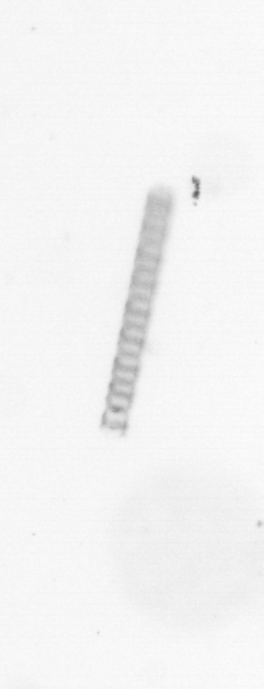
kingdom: Chromista
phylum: Ochrophyta
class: Bacillariophyceae
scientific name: Bacillariophyceae
